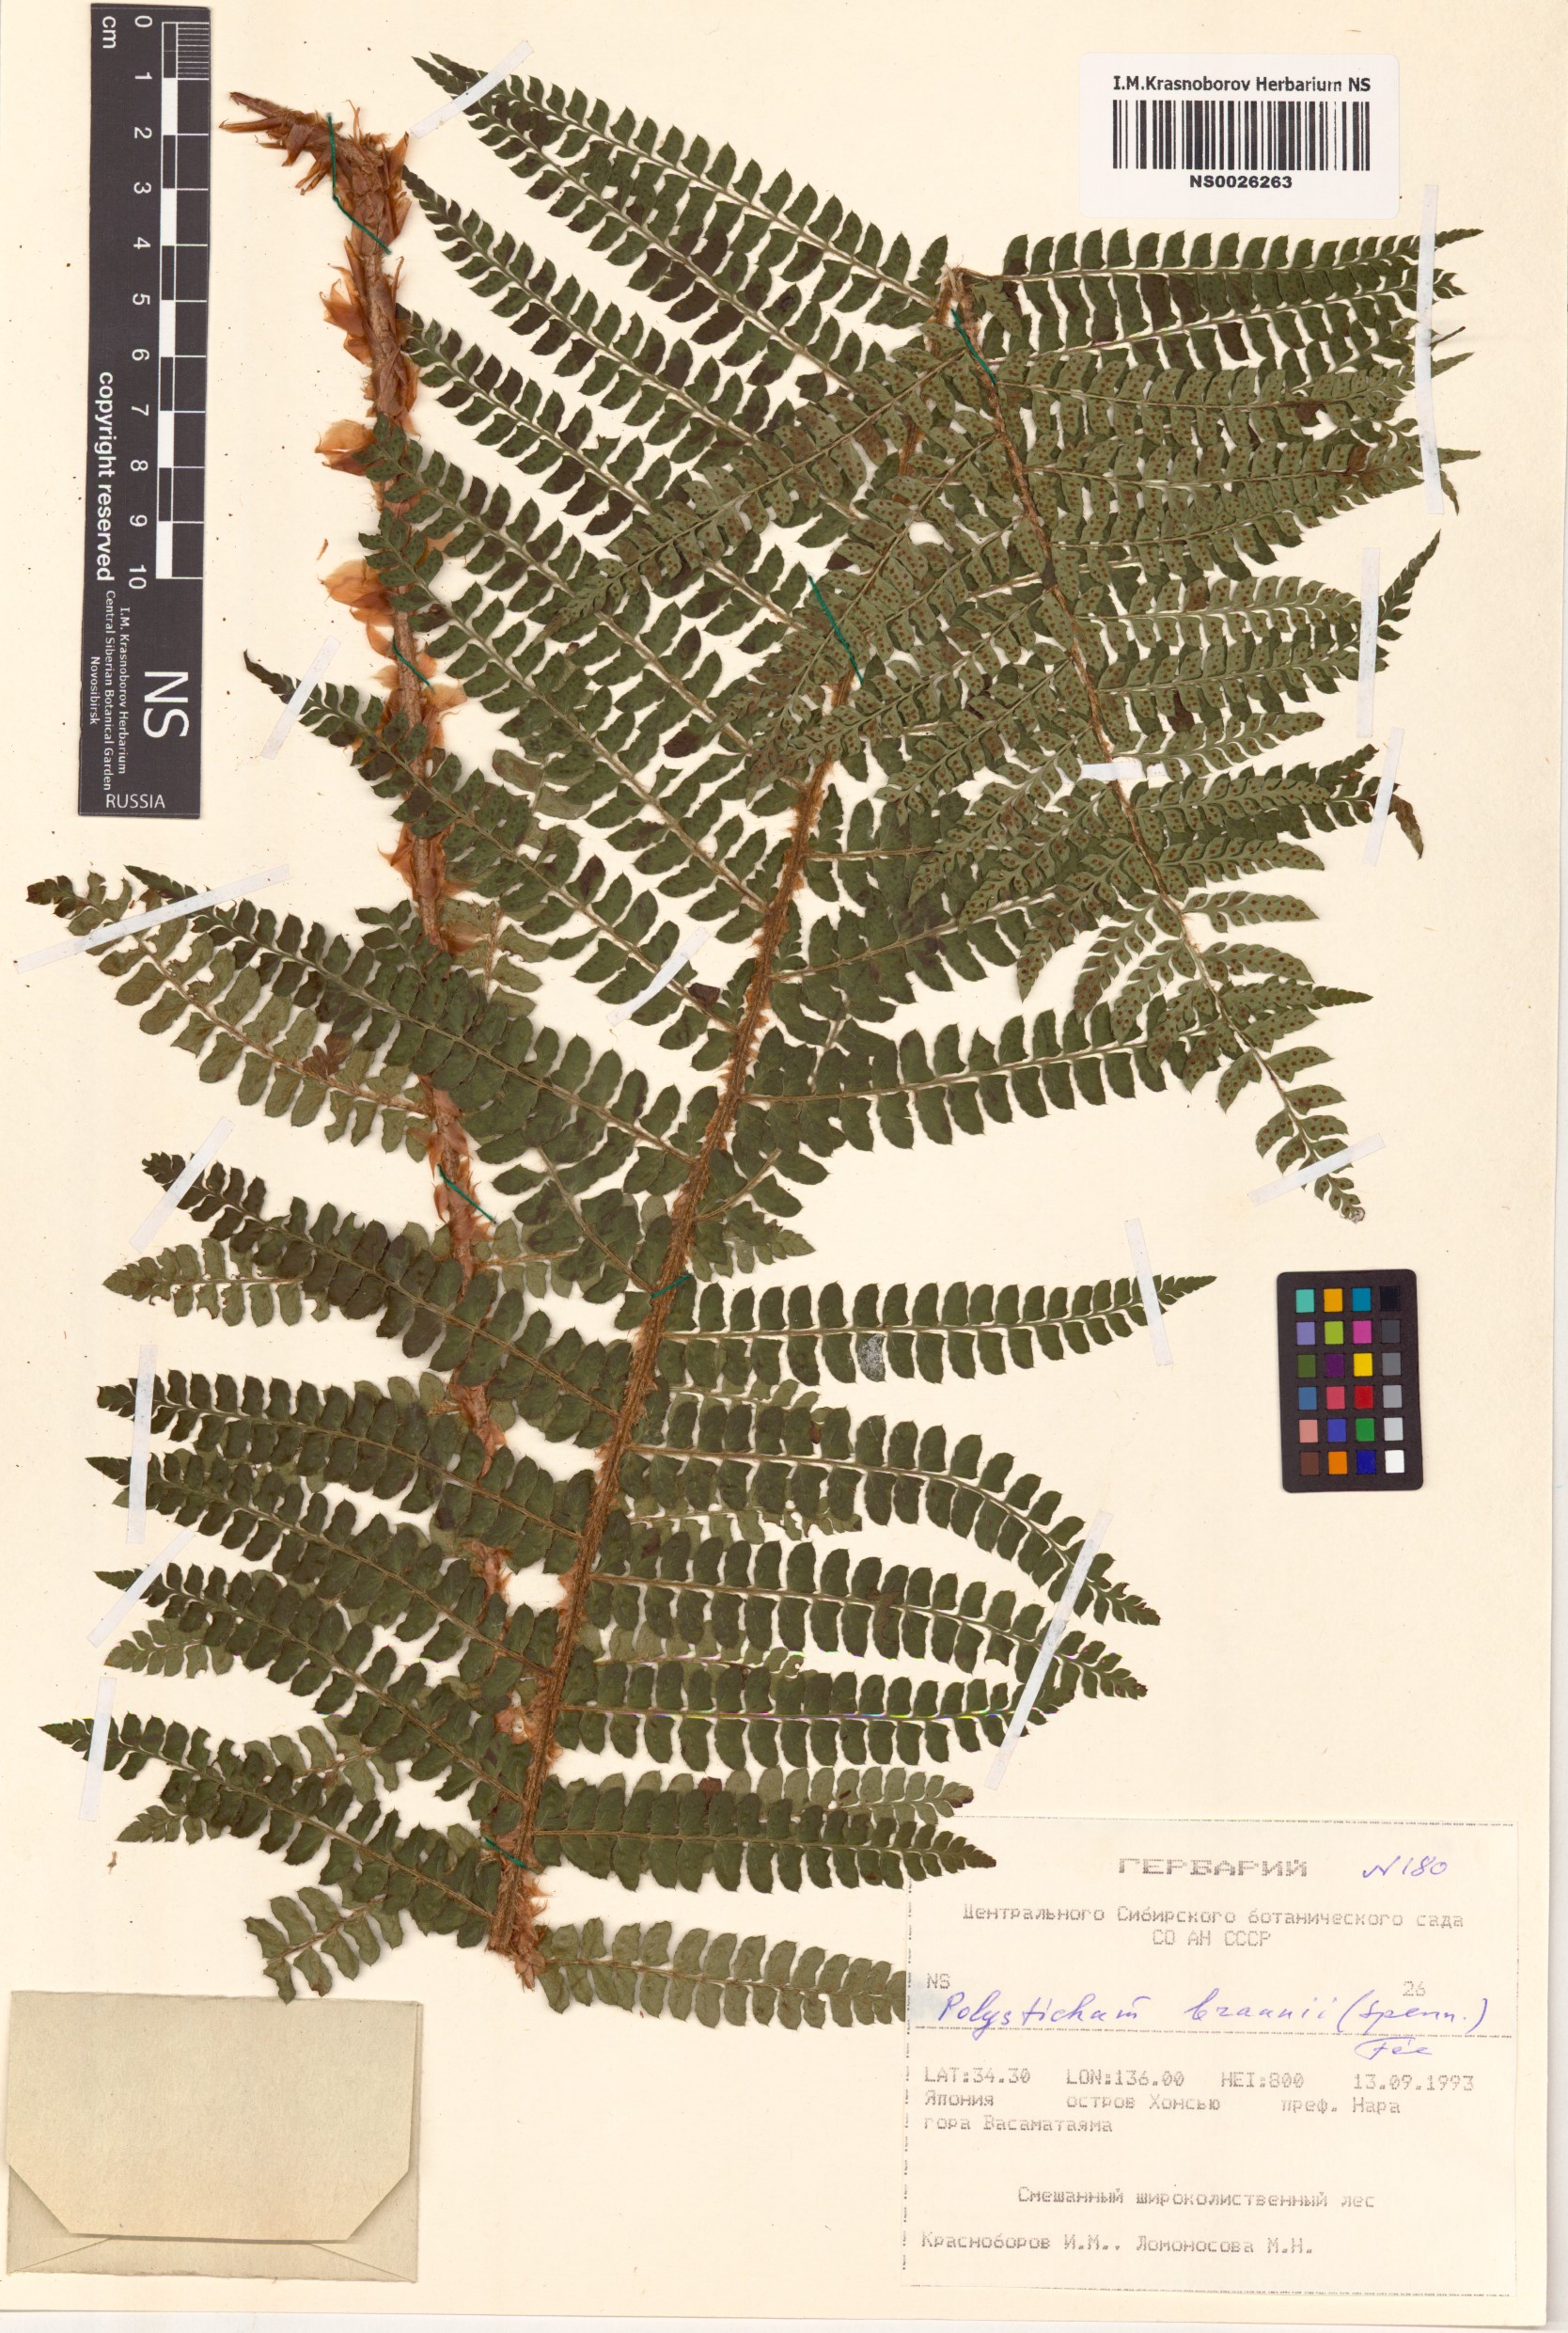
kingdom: Plantae
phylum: Tracheophyta
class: Polypodiopsida
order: Polypodiales
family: Dryopteridaceae
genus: Polystichum
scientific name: Polystichum braunii
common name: Braun's holly fern
